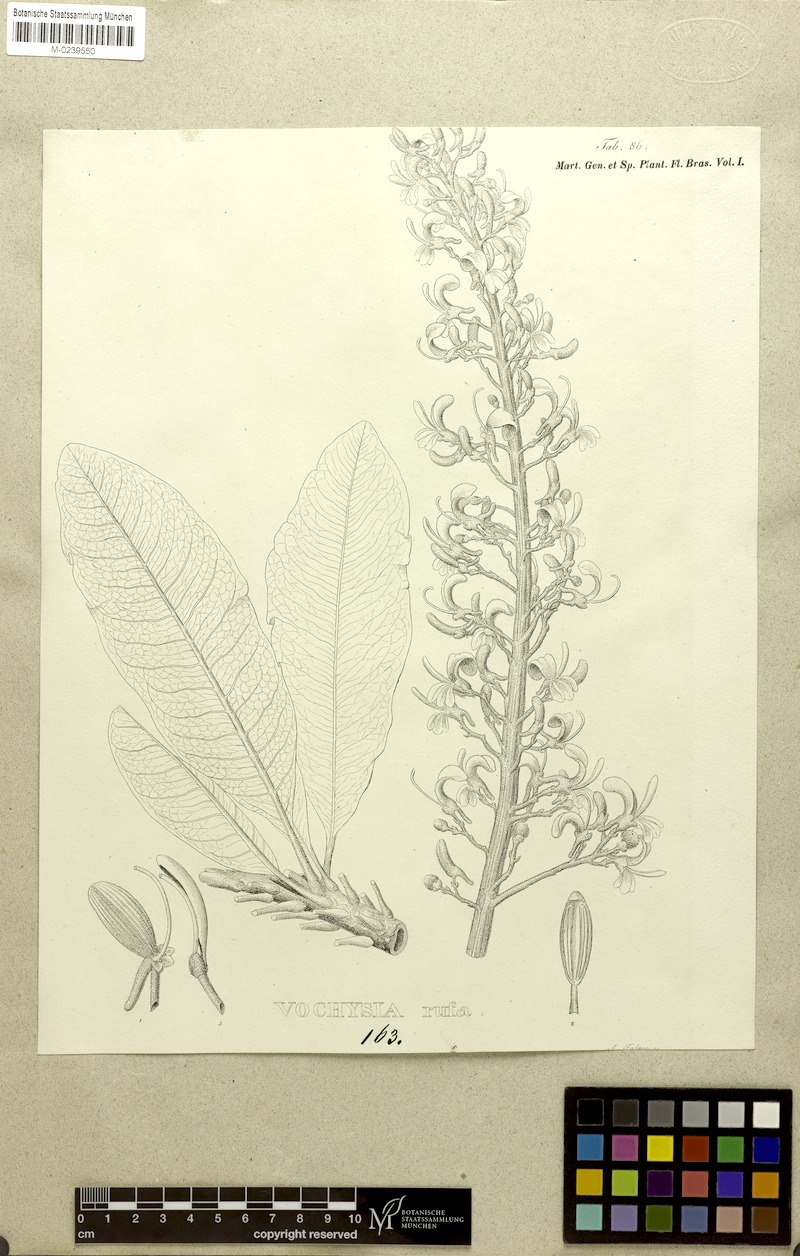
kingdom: Plantae
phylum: Tracheophyta
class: Magnoliopsida
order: Myrtales
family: Vochysiaceae
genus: Vochysia
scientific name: Vochysia rufa
